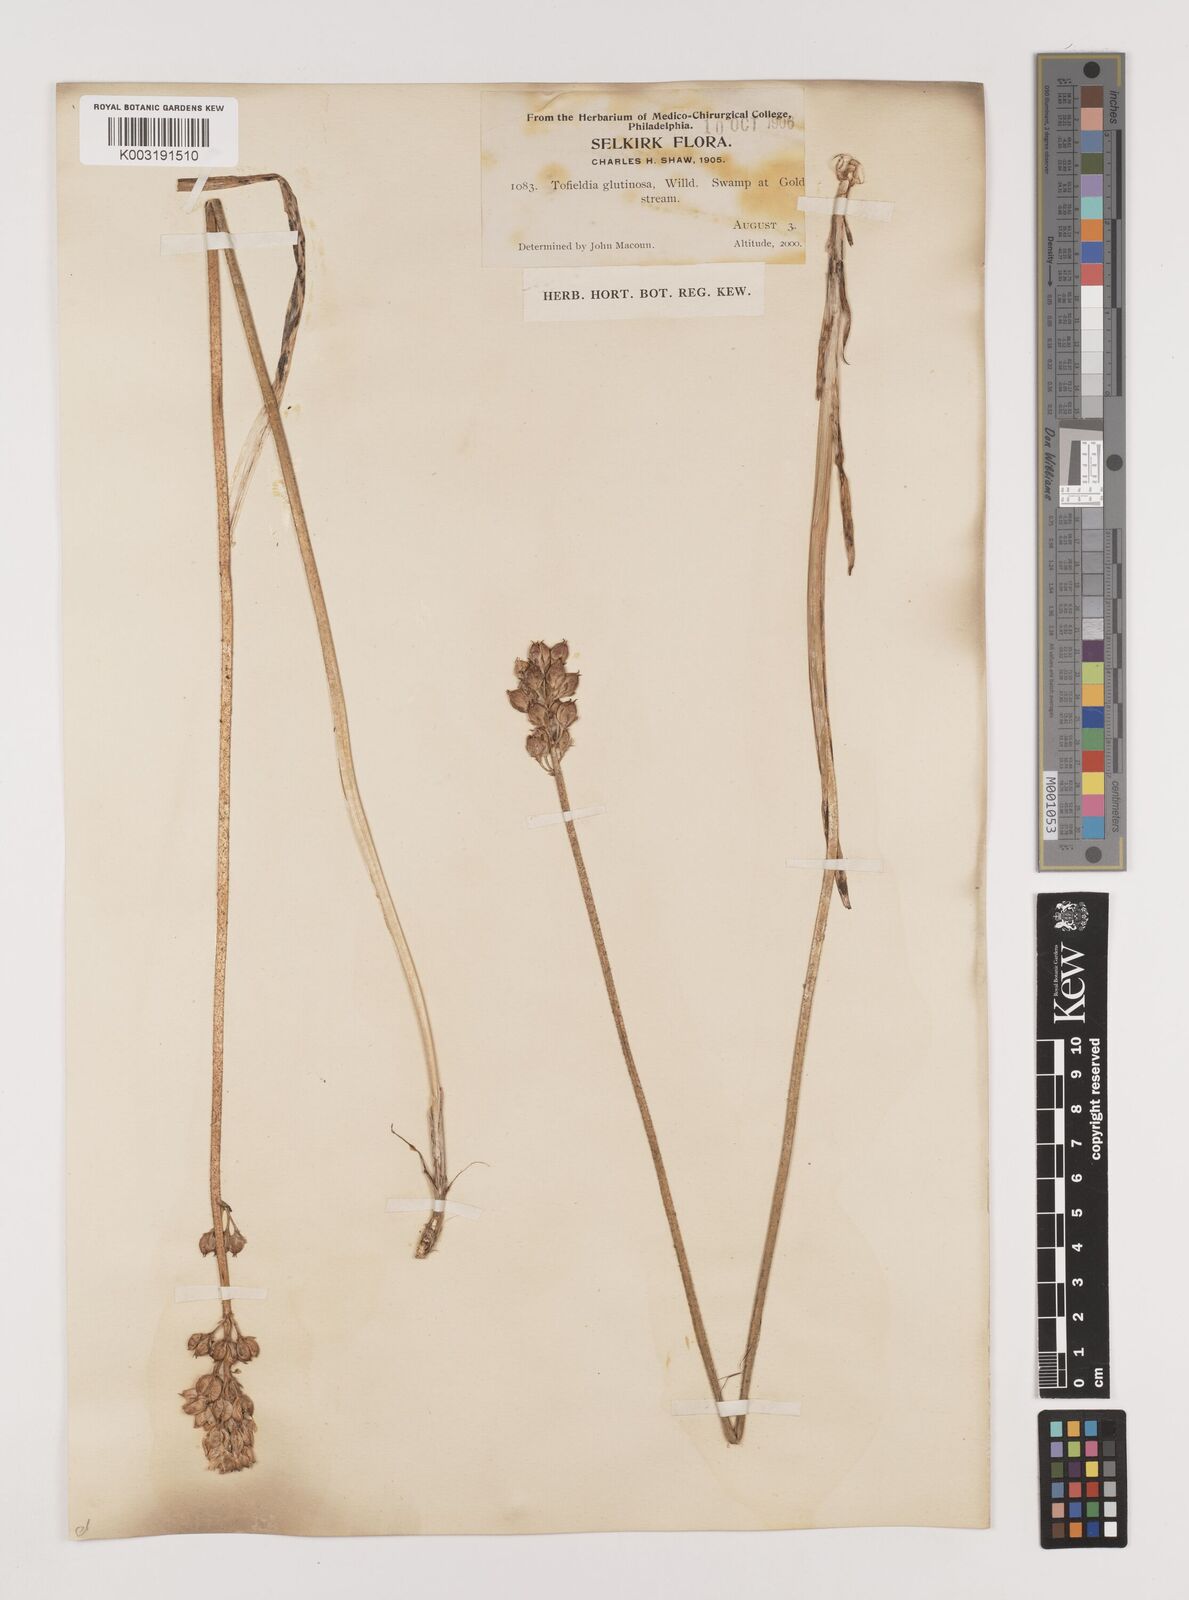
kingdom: Plantae
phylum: Tracheophyta
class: Liliopsida
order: Alismatales
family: Tofieldiaceae
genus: Triantha
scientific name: Triantha glutinosa
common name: Glutinous tofieldia
